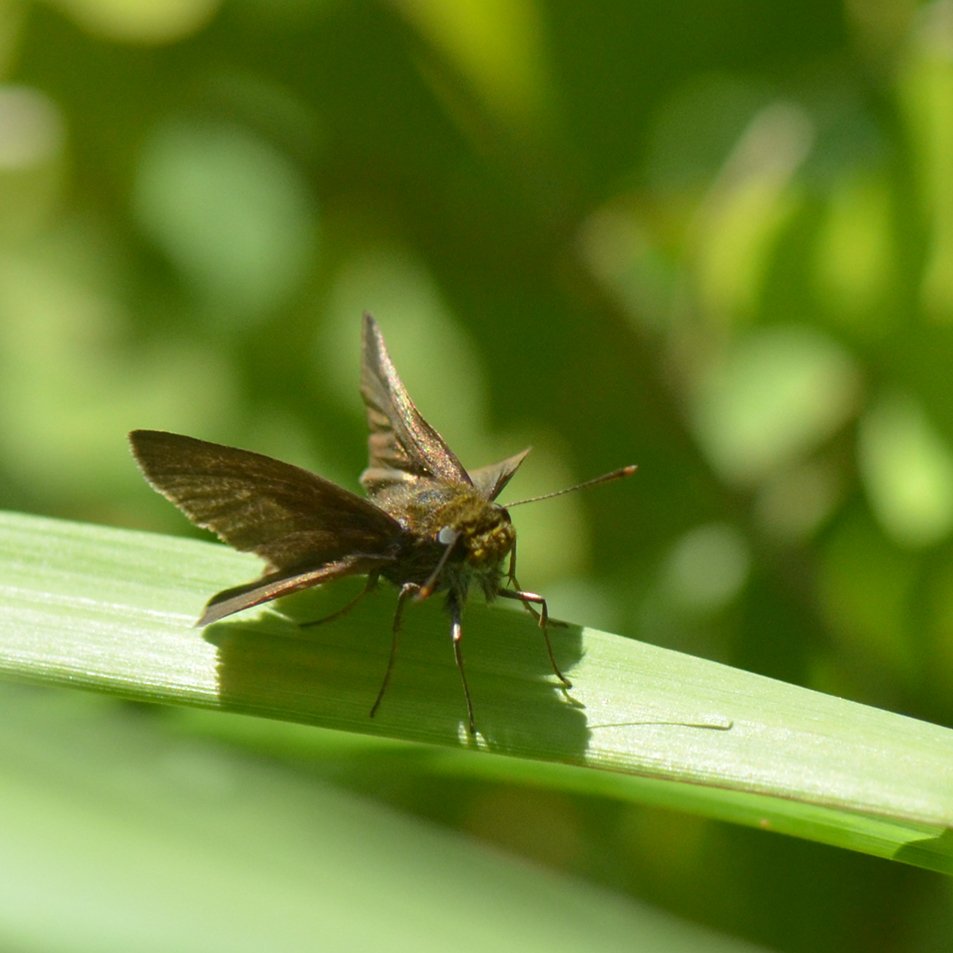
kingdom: Animalia
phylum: Arthropoda
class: Insecta
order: Lepidoptera
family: Hesperiidae
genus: Euphyes
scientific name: Euphyes vestris
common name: Dun Skipper
